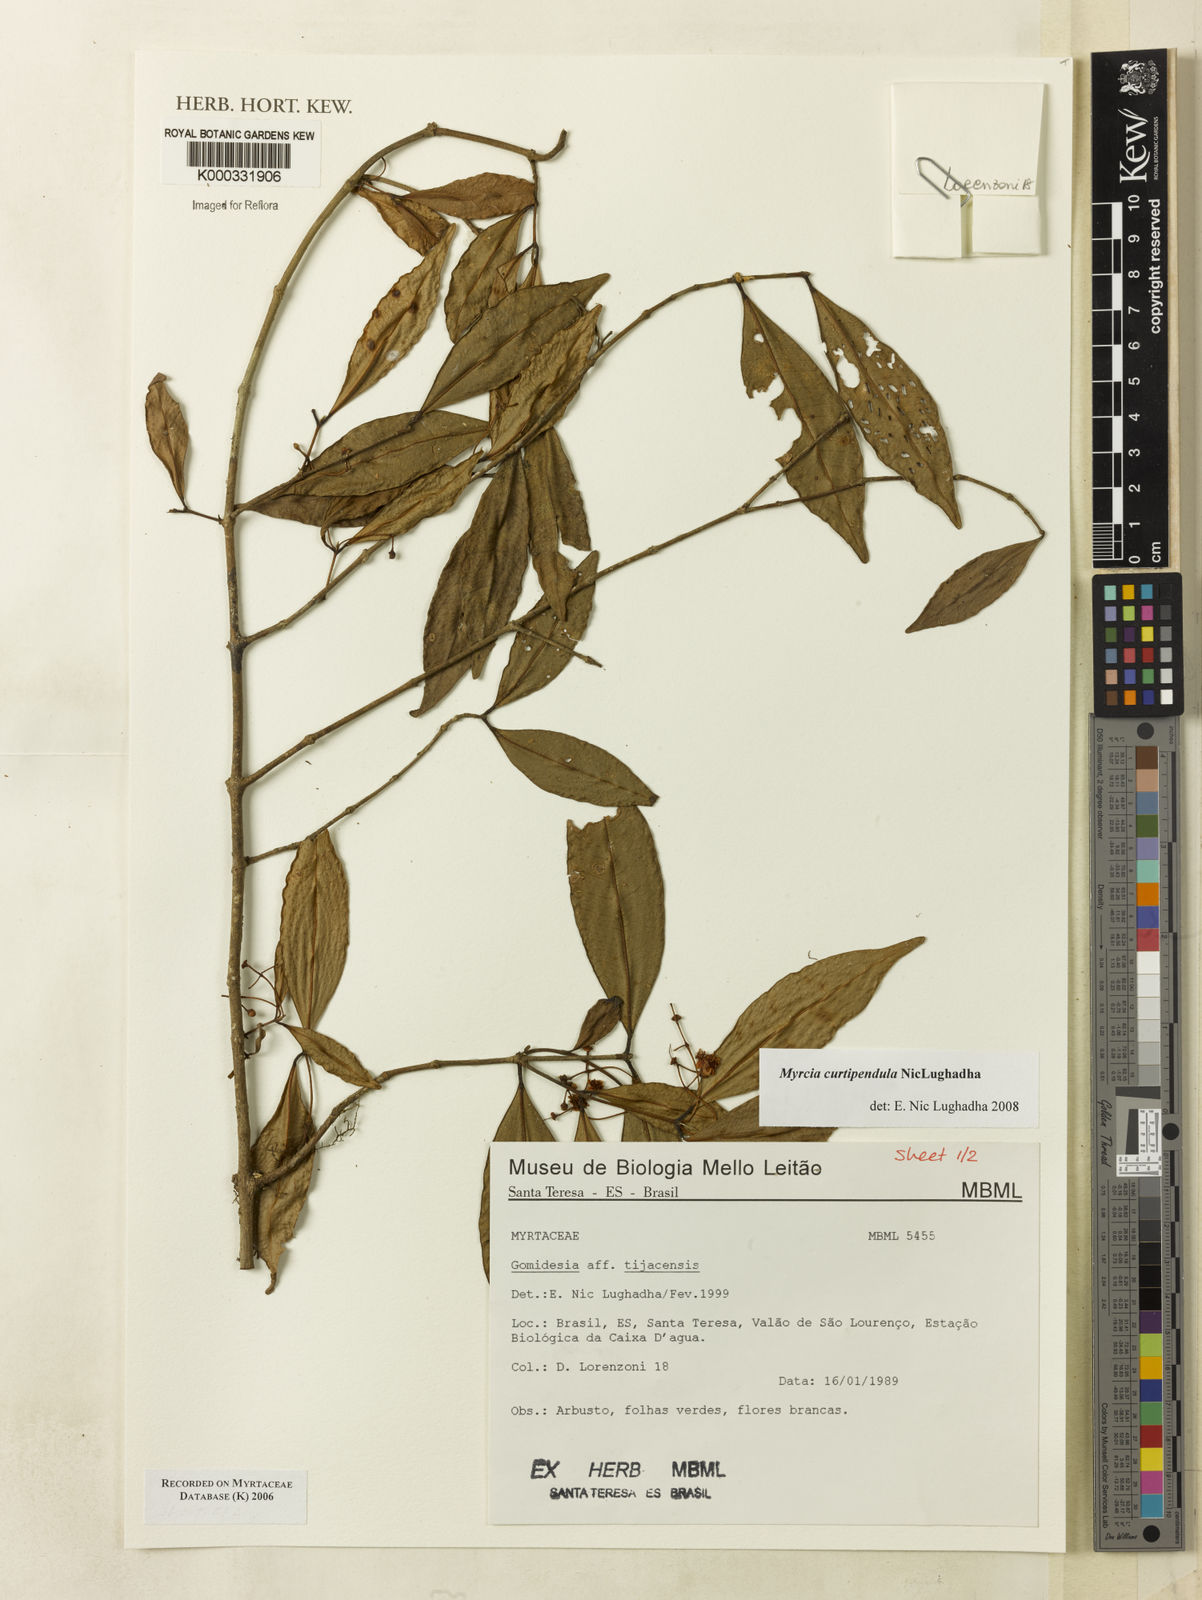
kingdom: Plantae
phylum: Tracheophyta
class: Magnoliopsida
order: Myrtales
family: Myrtaceae
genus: Myrcia
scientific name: Myrcia tijucensis
